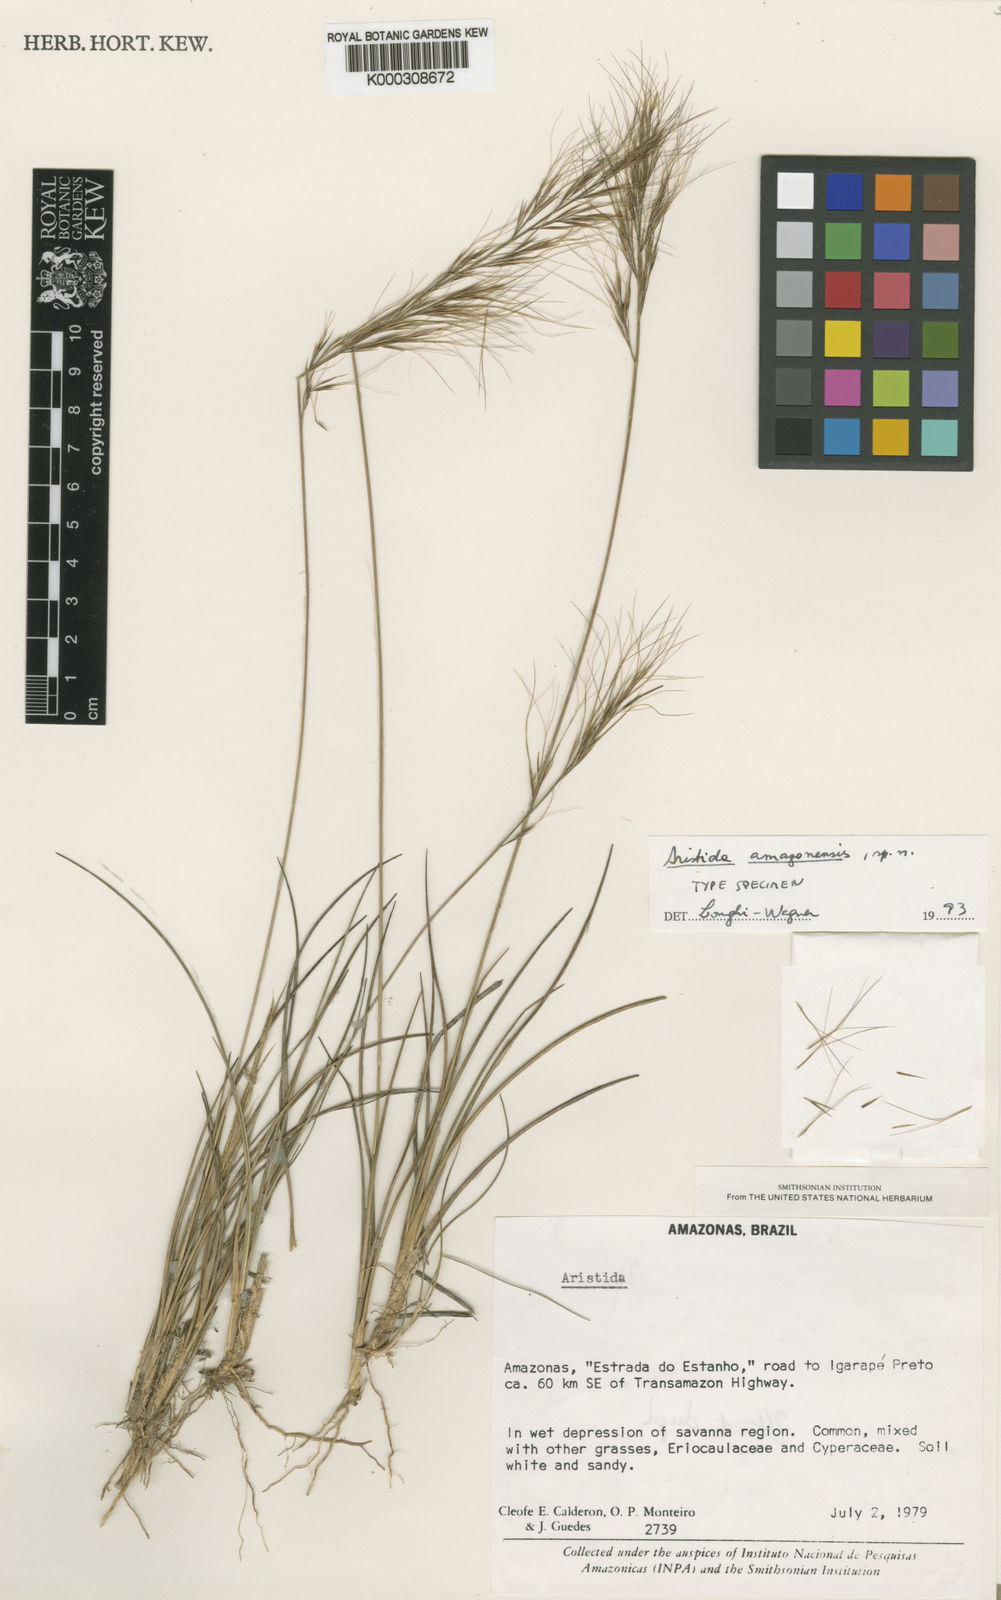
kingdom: Plantae
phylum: Tracheophyta
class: Liliopsida
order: Poales
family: Poaceae
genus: Aristida
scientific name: Aristida amazonensis
